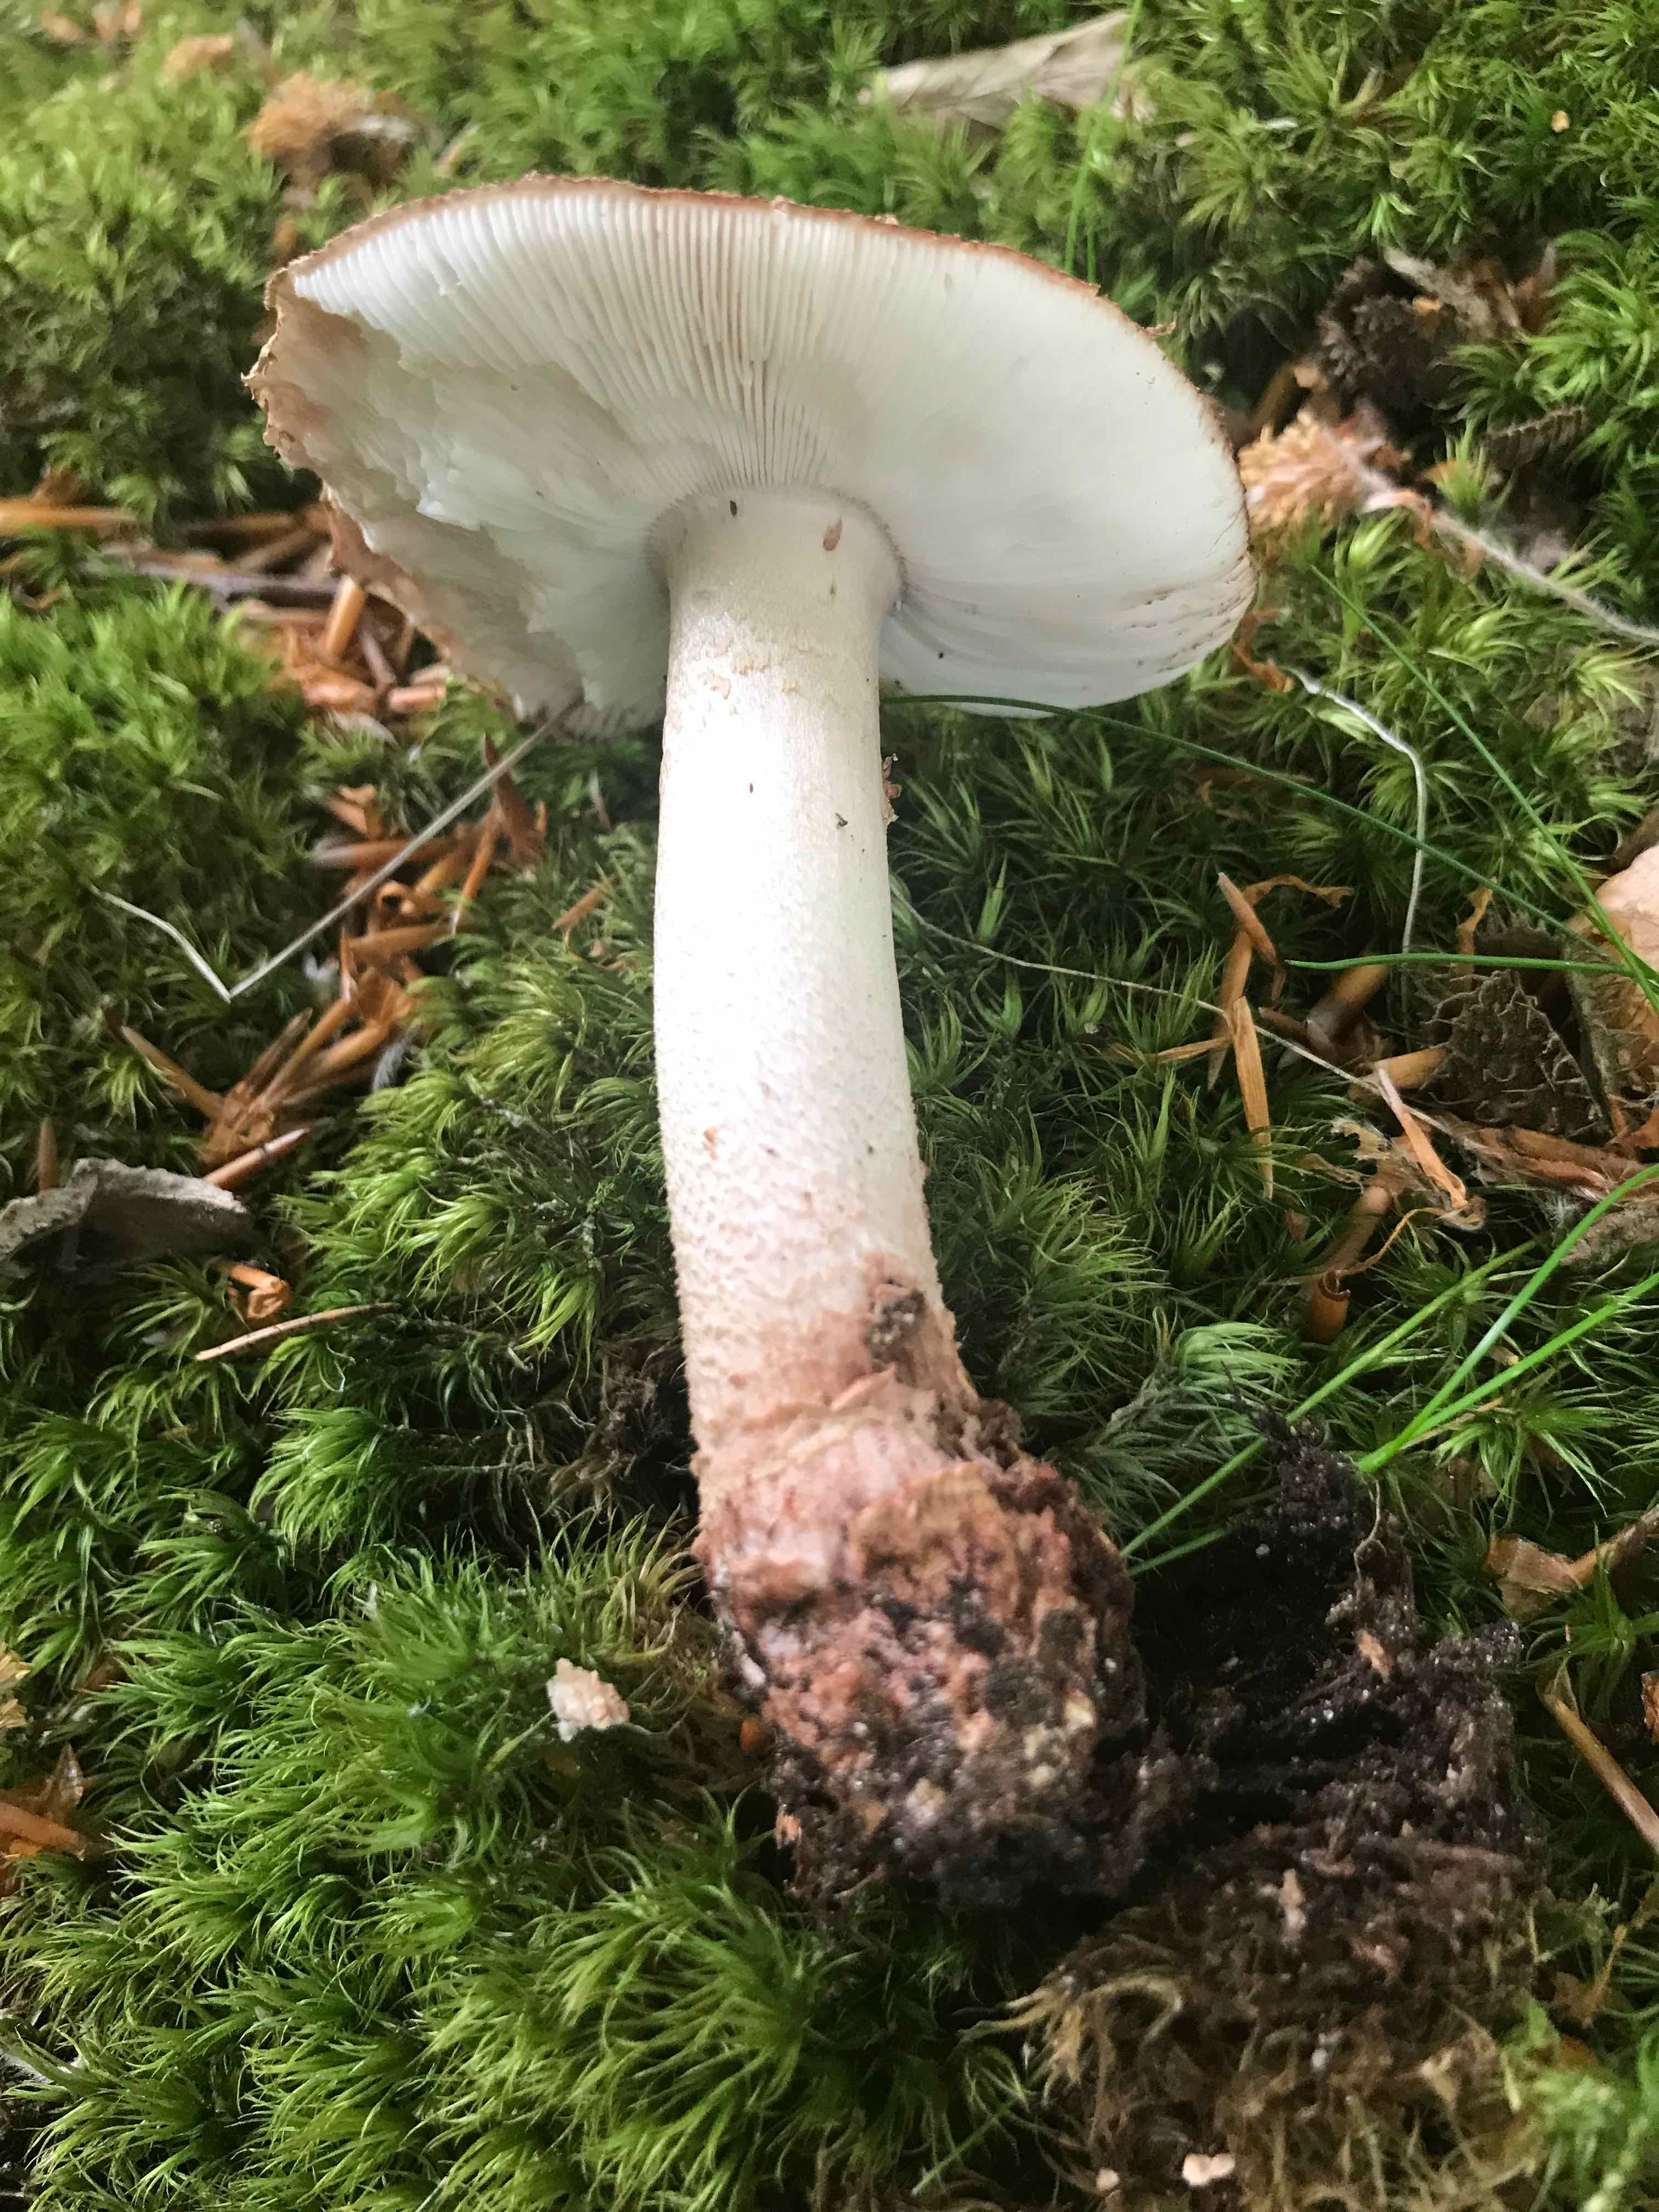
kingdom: Fungi
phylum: Basidiomycota
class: Agaricomycetes
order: Agaricales
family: Amanitaceae
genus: Amanita
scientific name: Amanita rubescens
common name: rødmende fluesvamp
